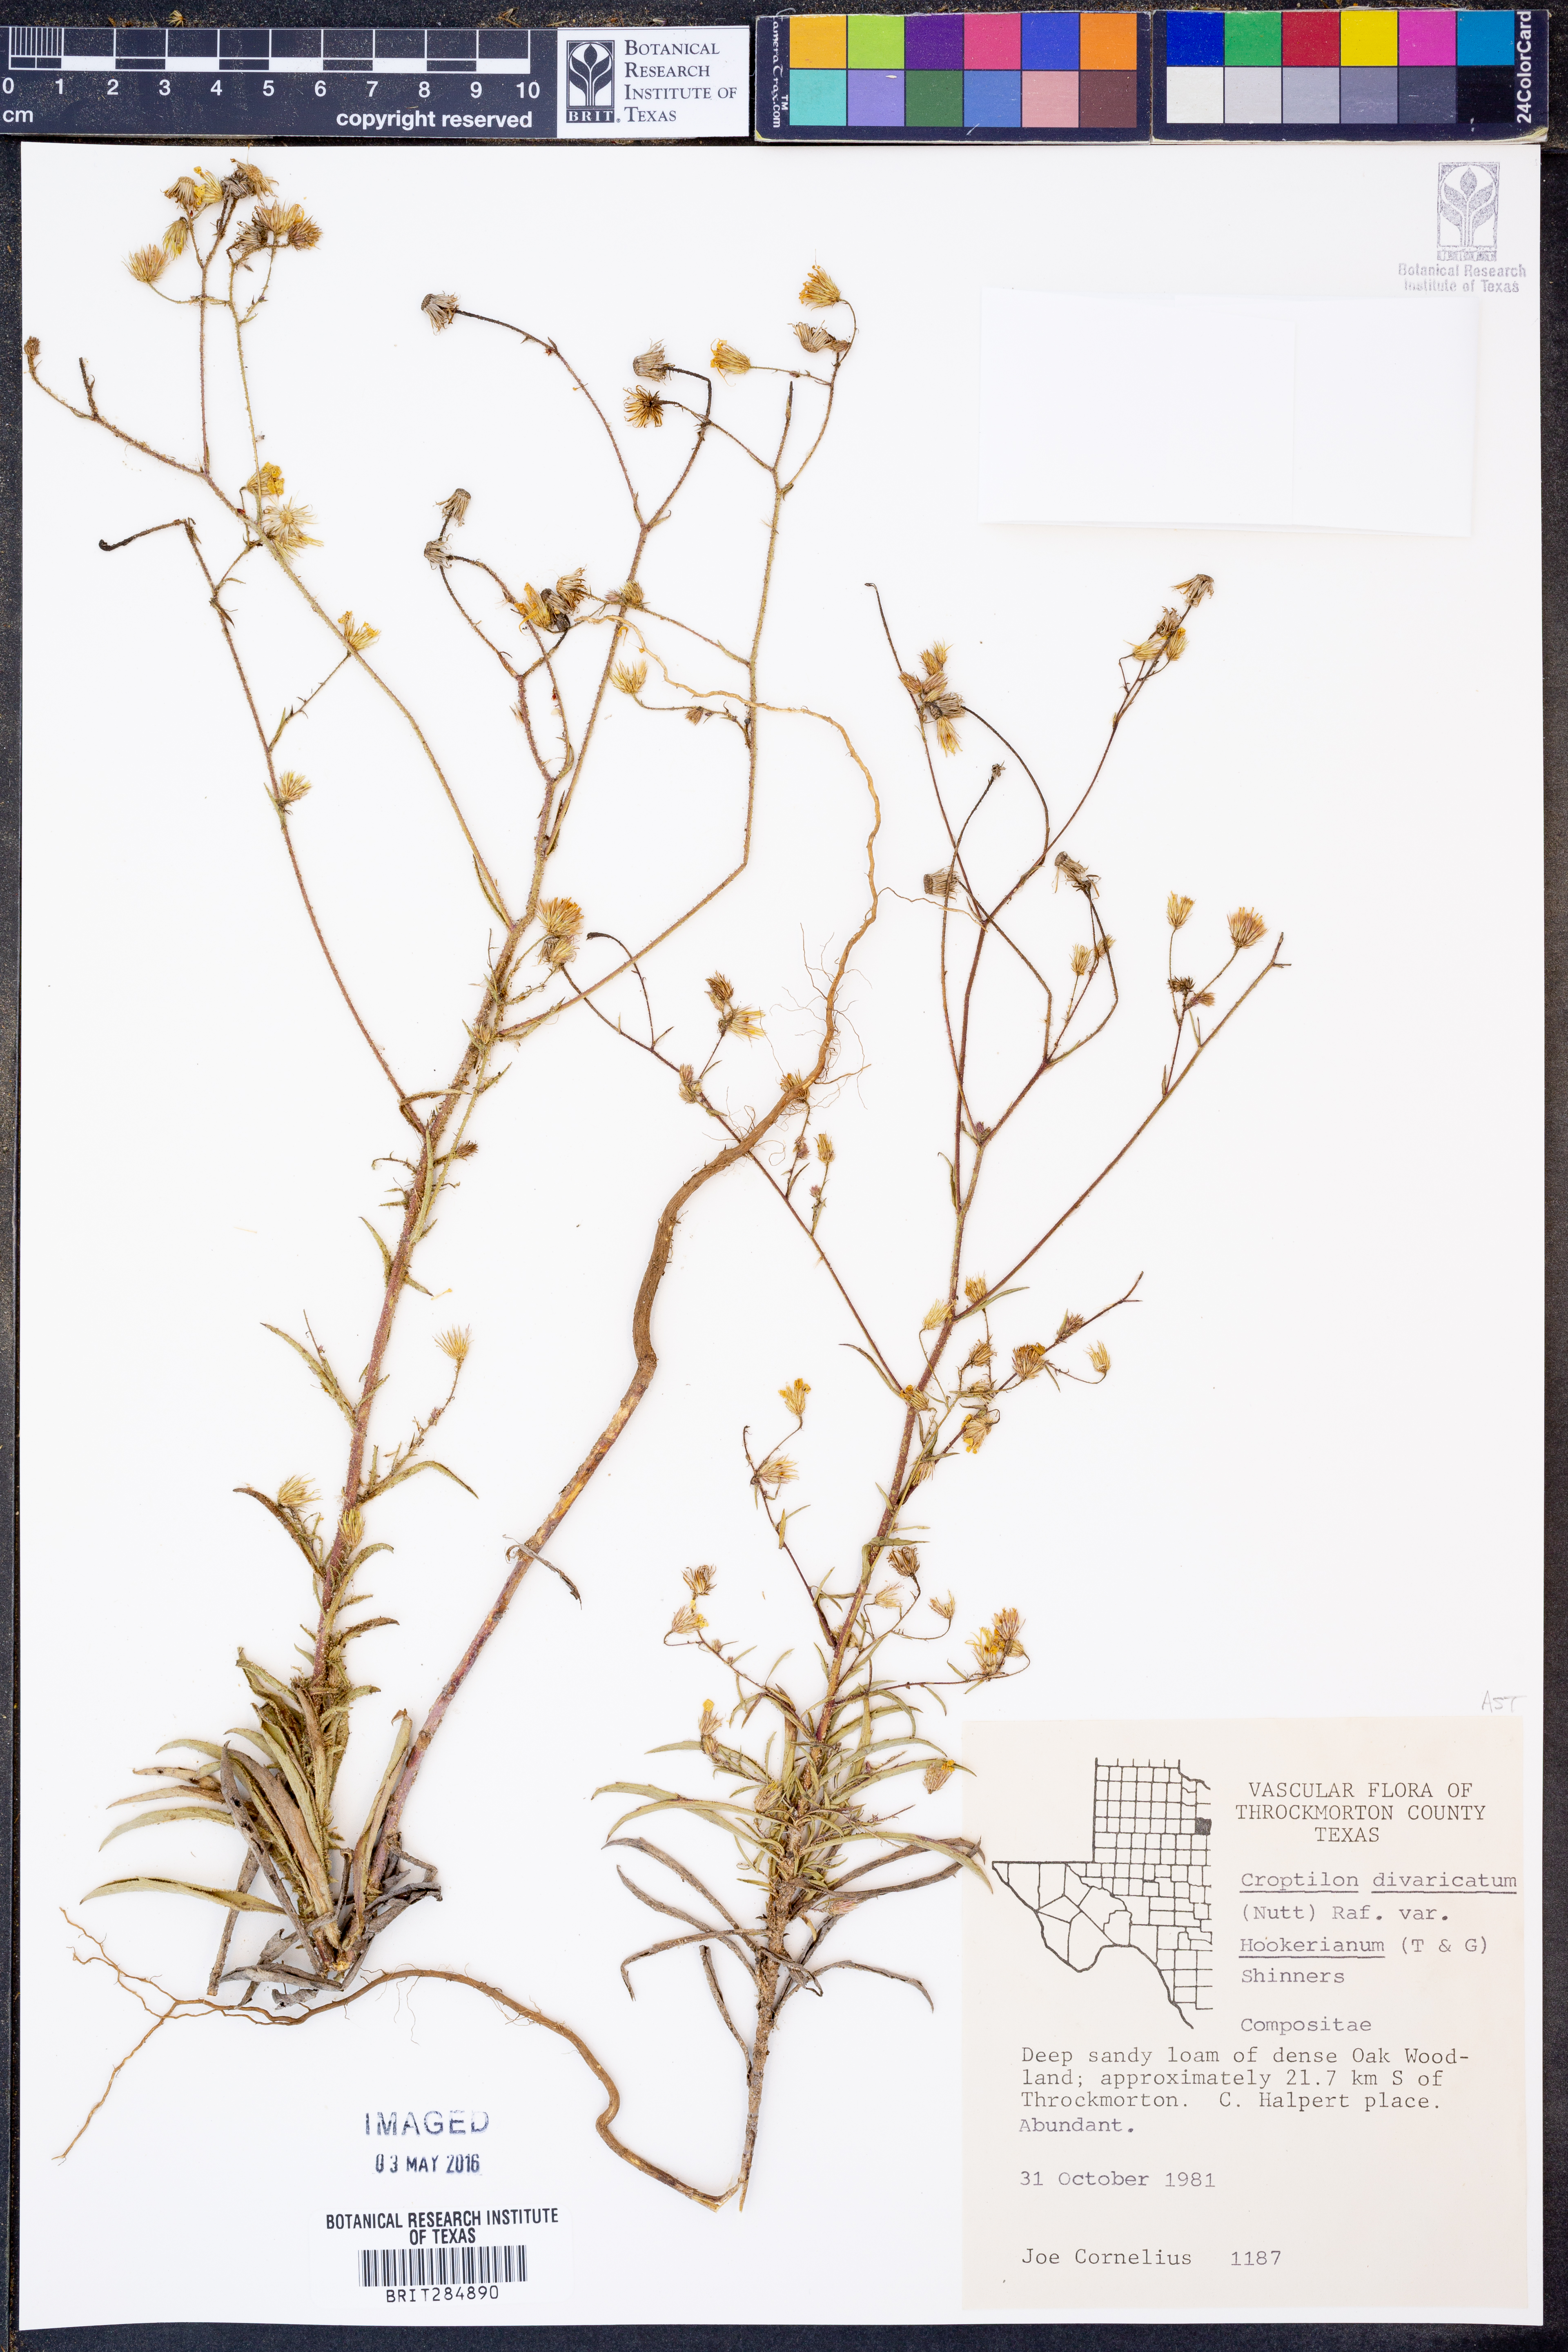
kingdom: Plantae
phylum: Tracheophyta
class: Magnoliopsida
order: Asterales
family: Asteraceae
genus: Croptilon
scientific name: Croptilon hookerianum
